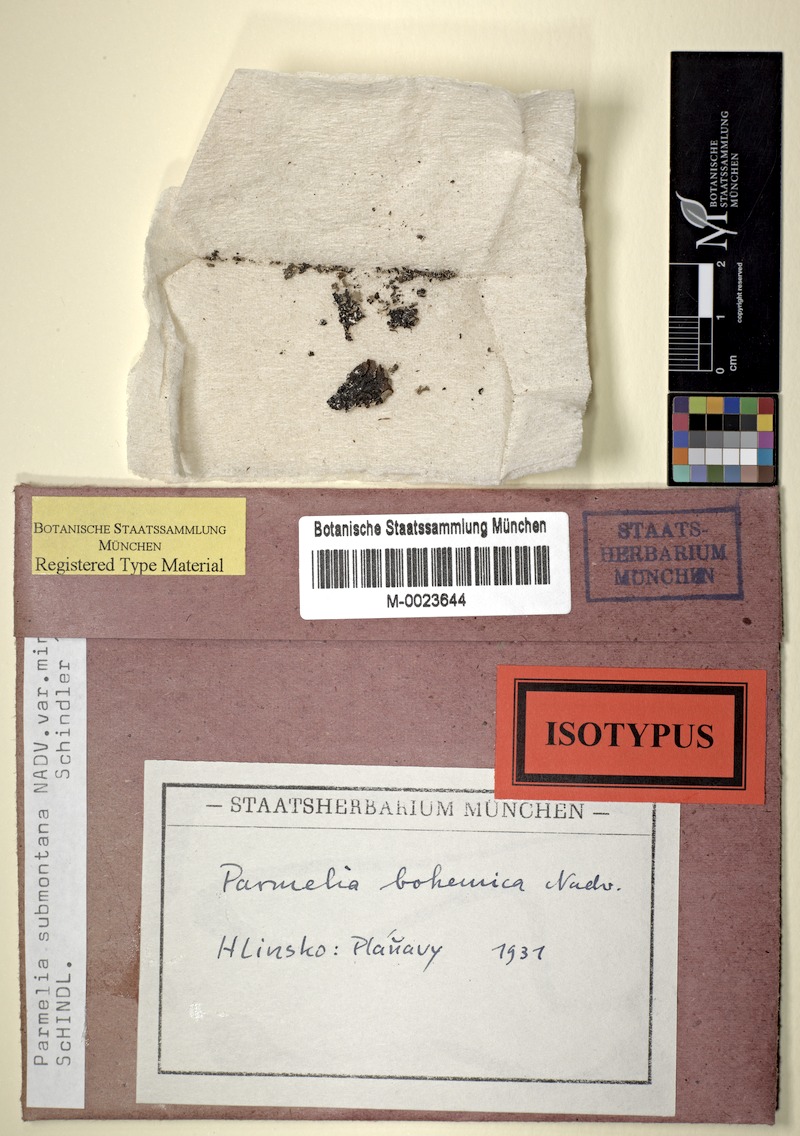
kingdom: Fungi
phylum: Ascomycota
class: Lecanoromycetes
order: Lecanorales
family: Parmeliaceae
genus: Parmelia
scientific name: Parmelia submontana
